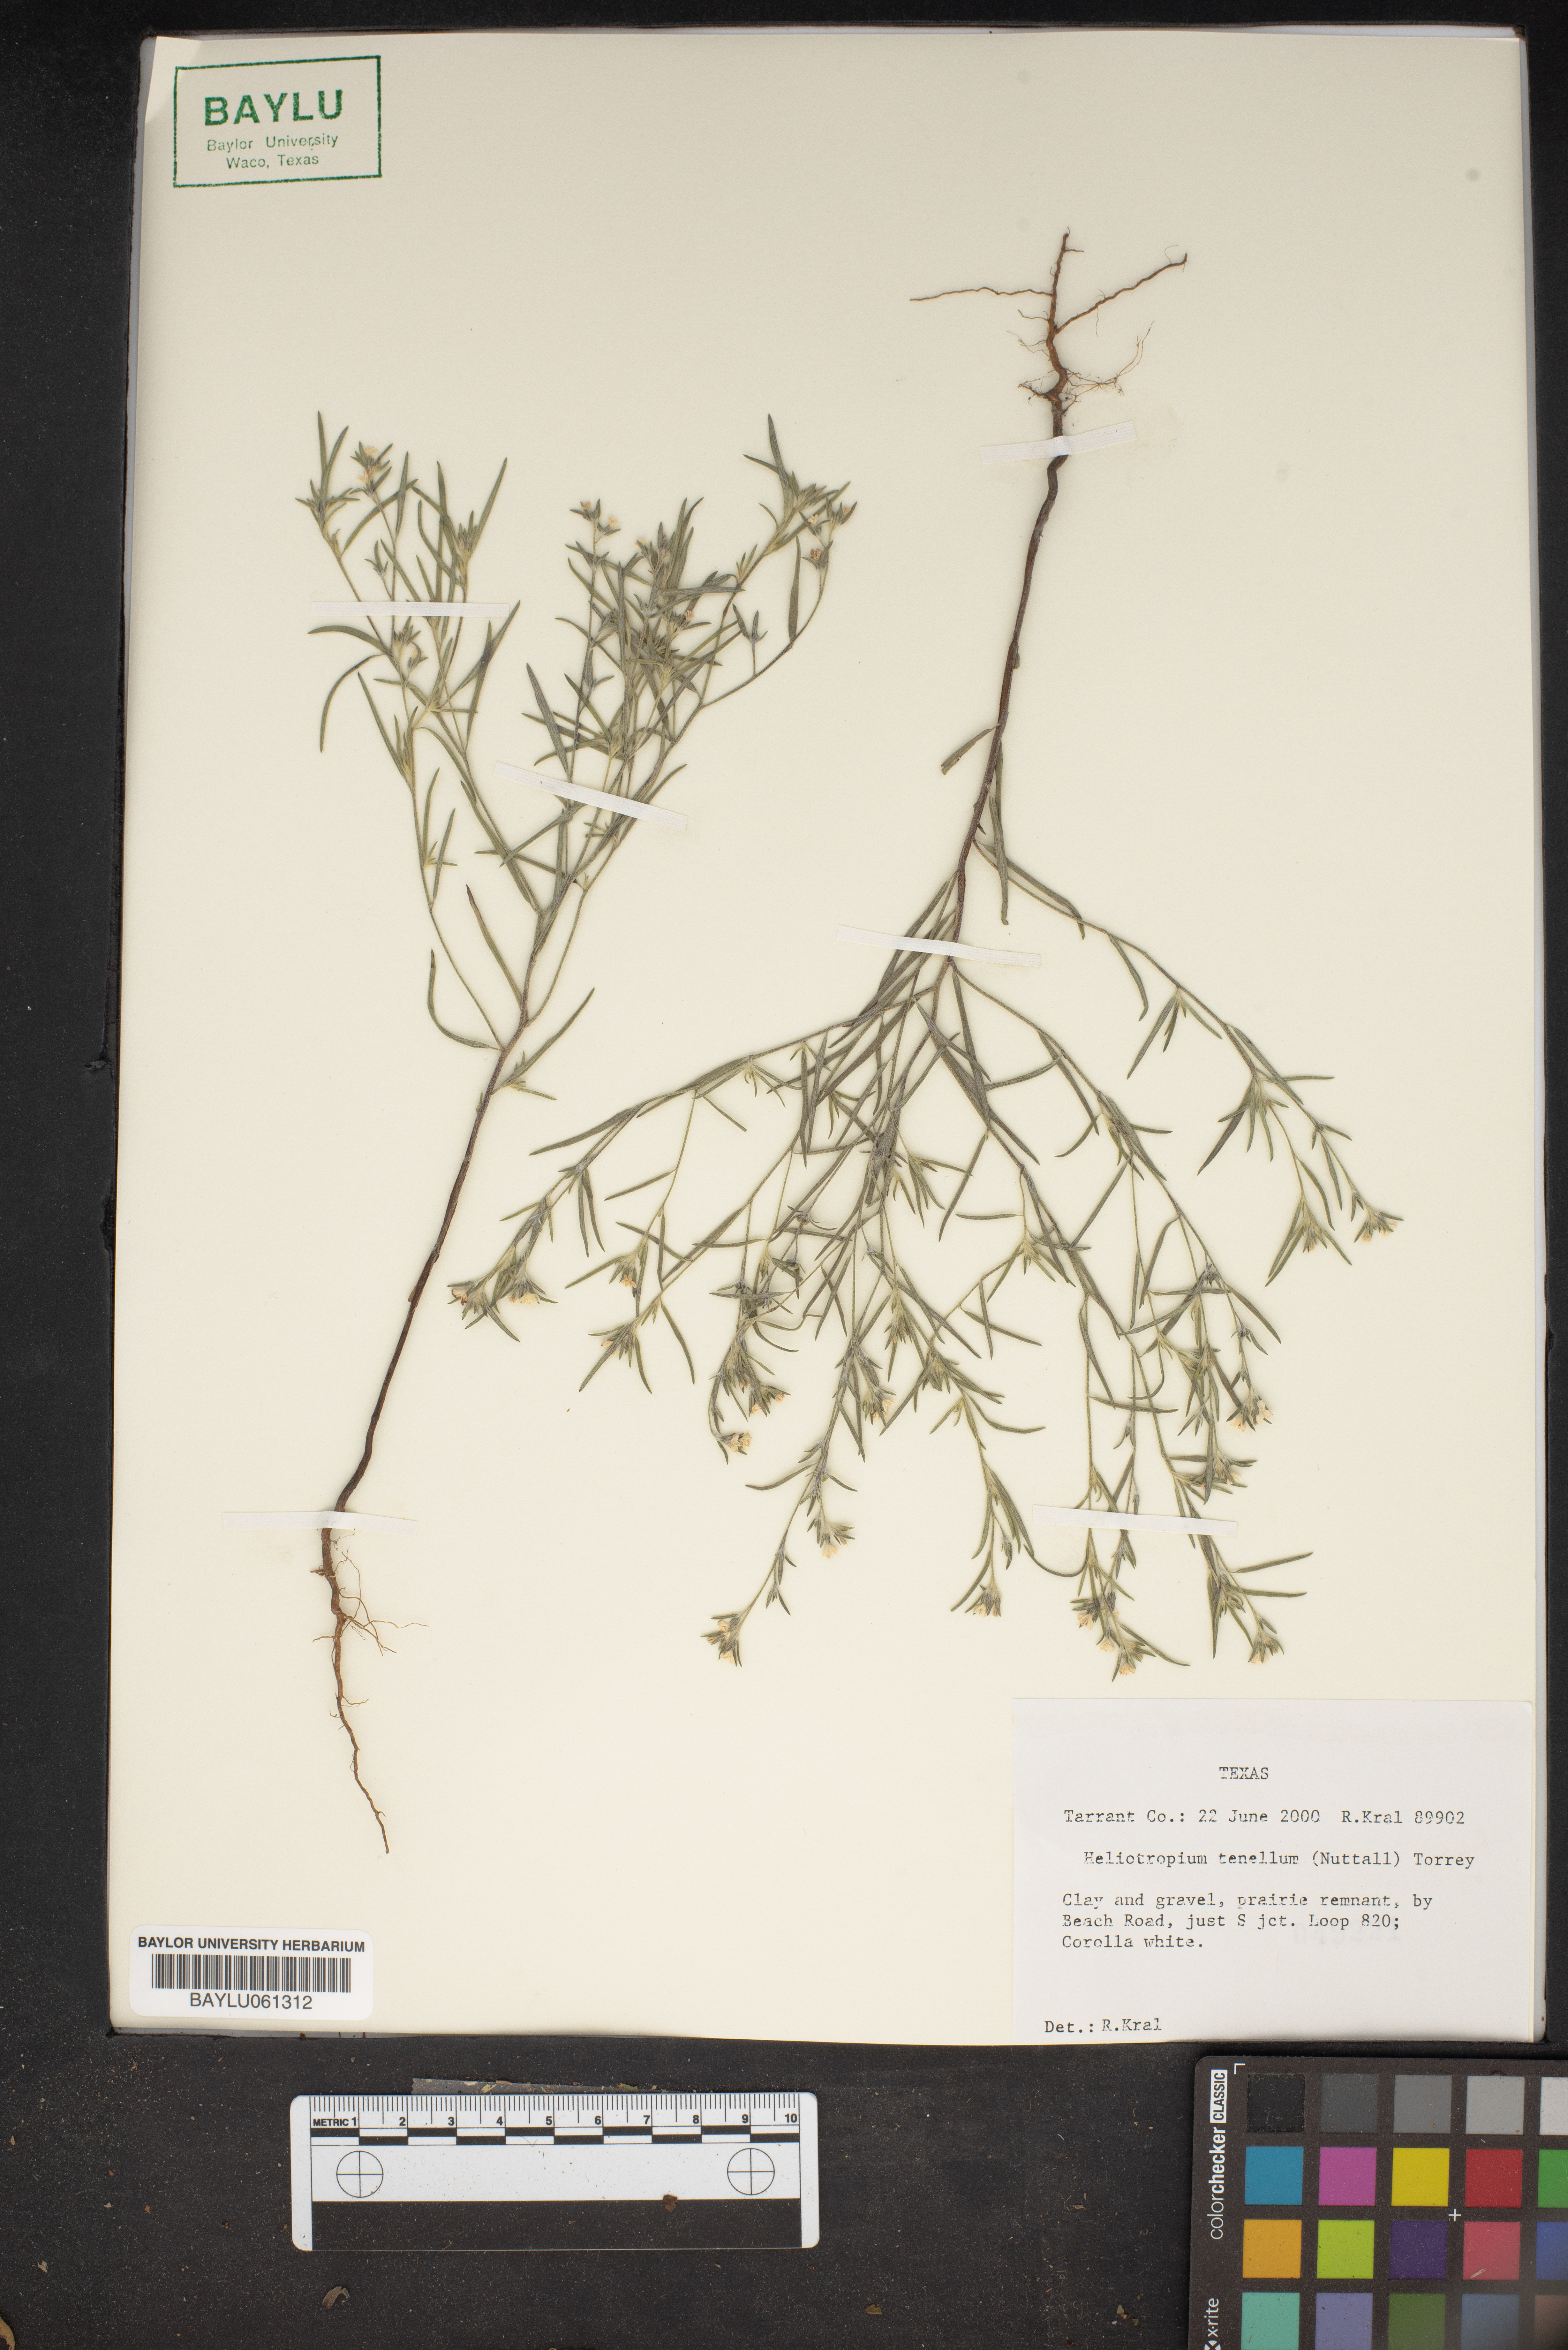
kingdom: Plantae
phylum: Tracheophyta
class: Magnoliopsida
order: Boraginales
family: Heliotropiaceae
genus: Euploca
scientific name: Euploca tenella
